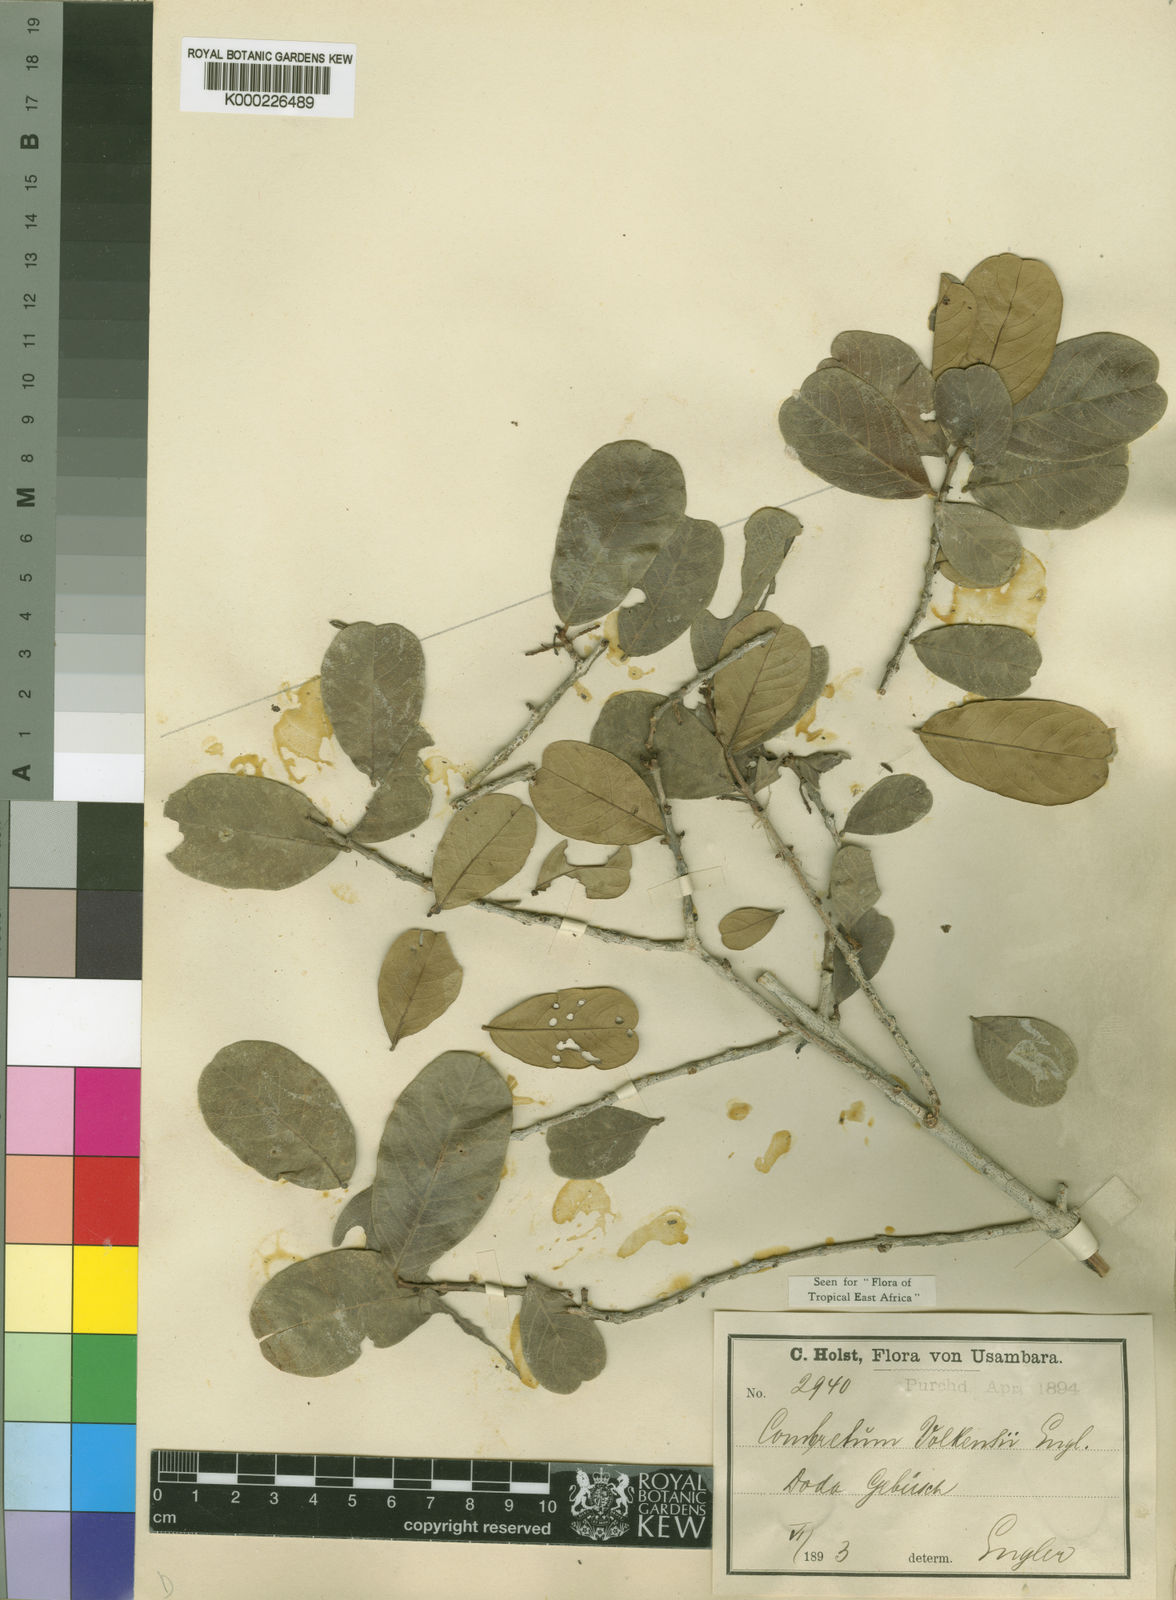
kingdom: Plantae
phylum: Tracheophyta
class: Magnoliopsida
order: Myrtales
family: Combretaceae
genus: Combretum
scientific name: Combretum hereroense
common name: Russet bushwillow
